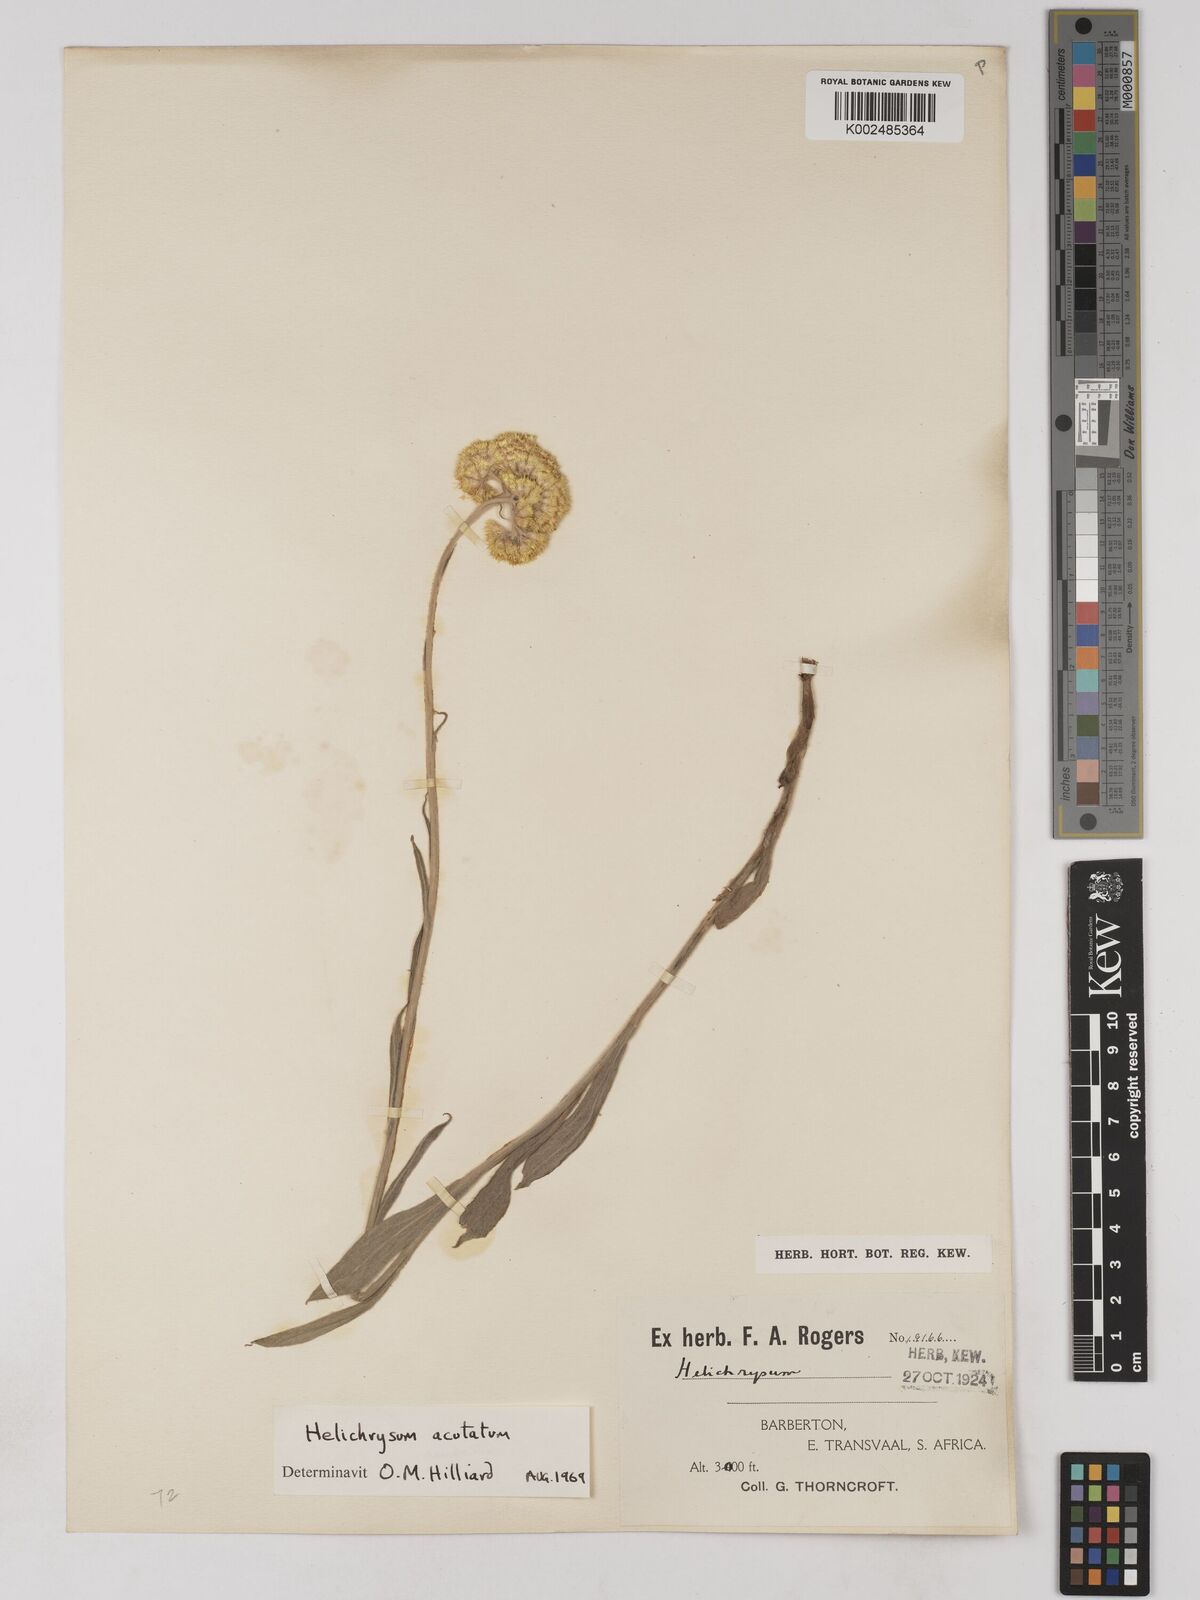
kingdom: Plantae
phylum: Tracheophyta
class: Magnoliopsida
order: Asterales
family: Asteraceae
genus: Helichrysum
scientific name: Helichrysum acutatum
